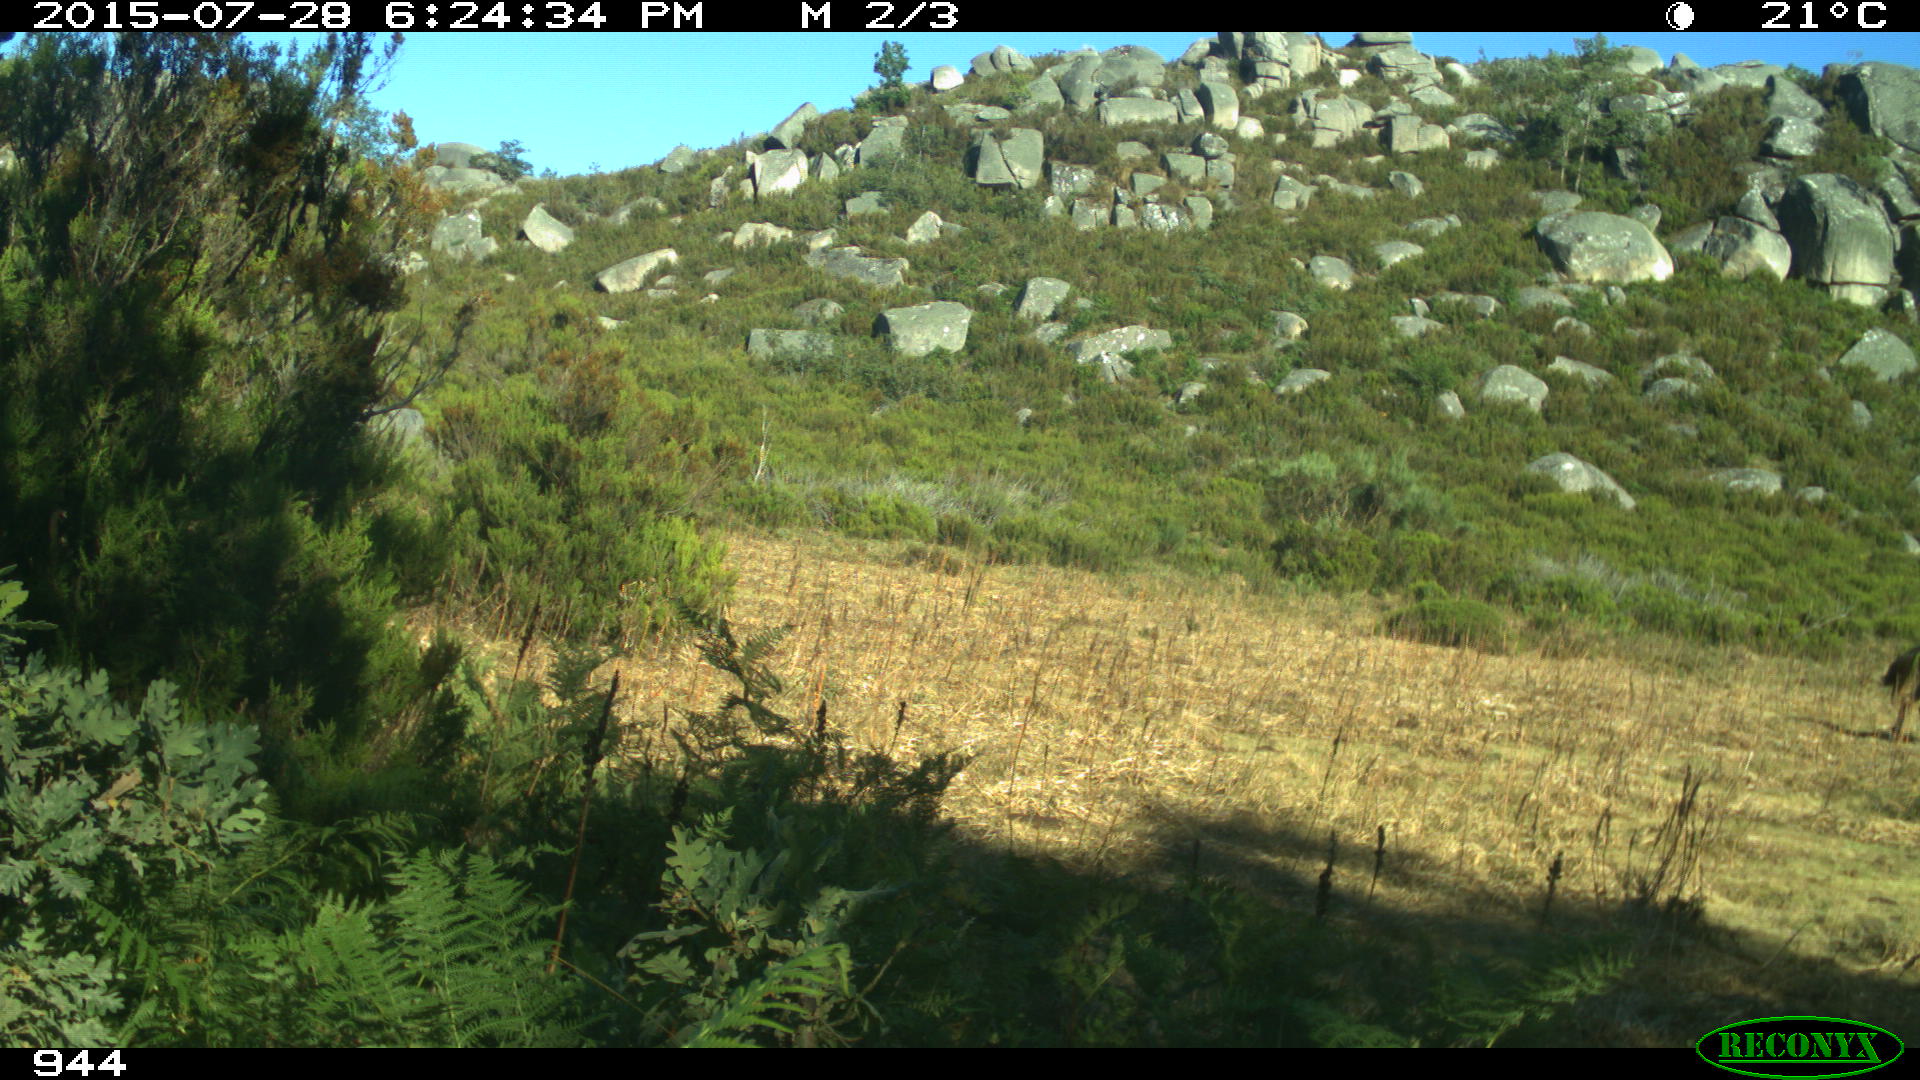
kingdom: Animalia
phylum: Chordata
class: Mammalia
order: Perissodactyla
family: Equidae
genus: Equus
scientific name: Equus caballus
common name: Horse
